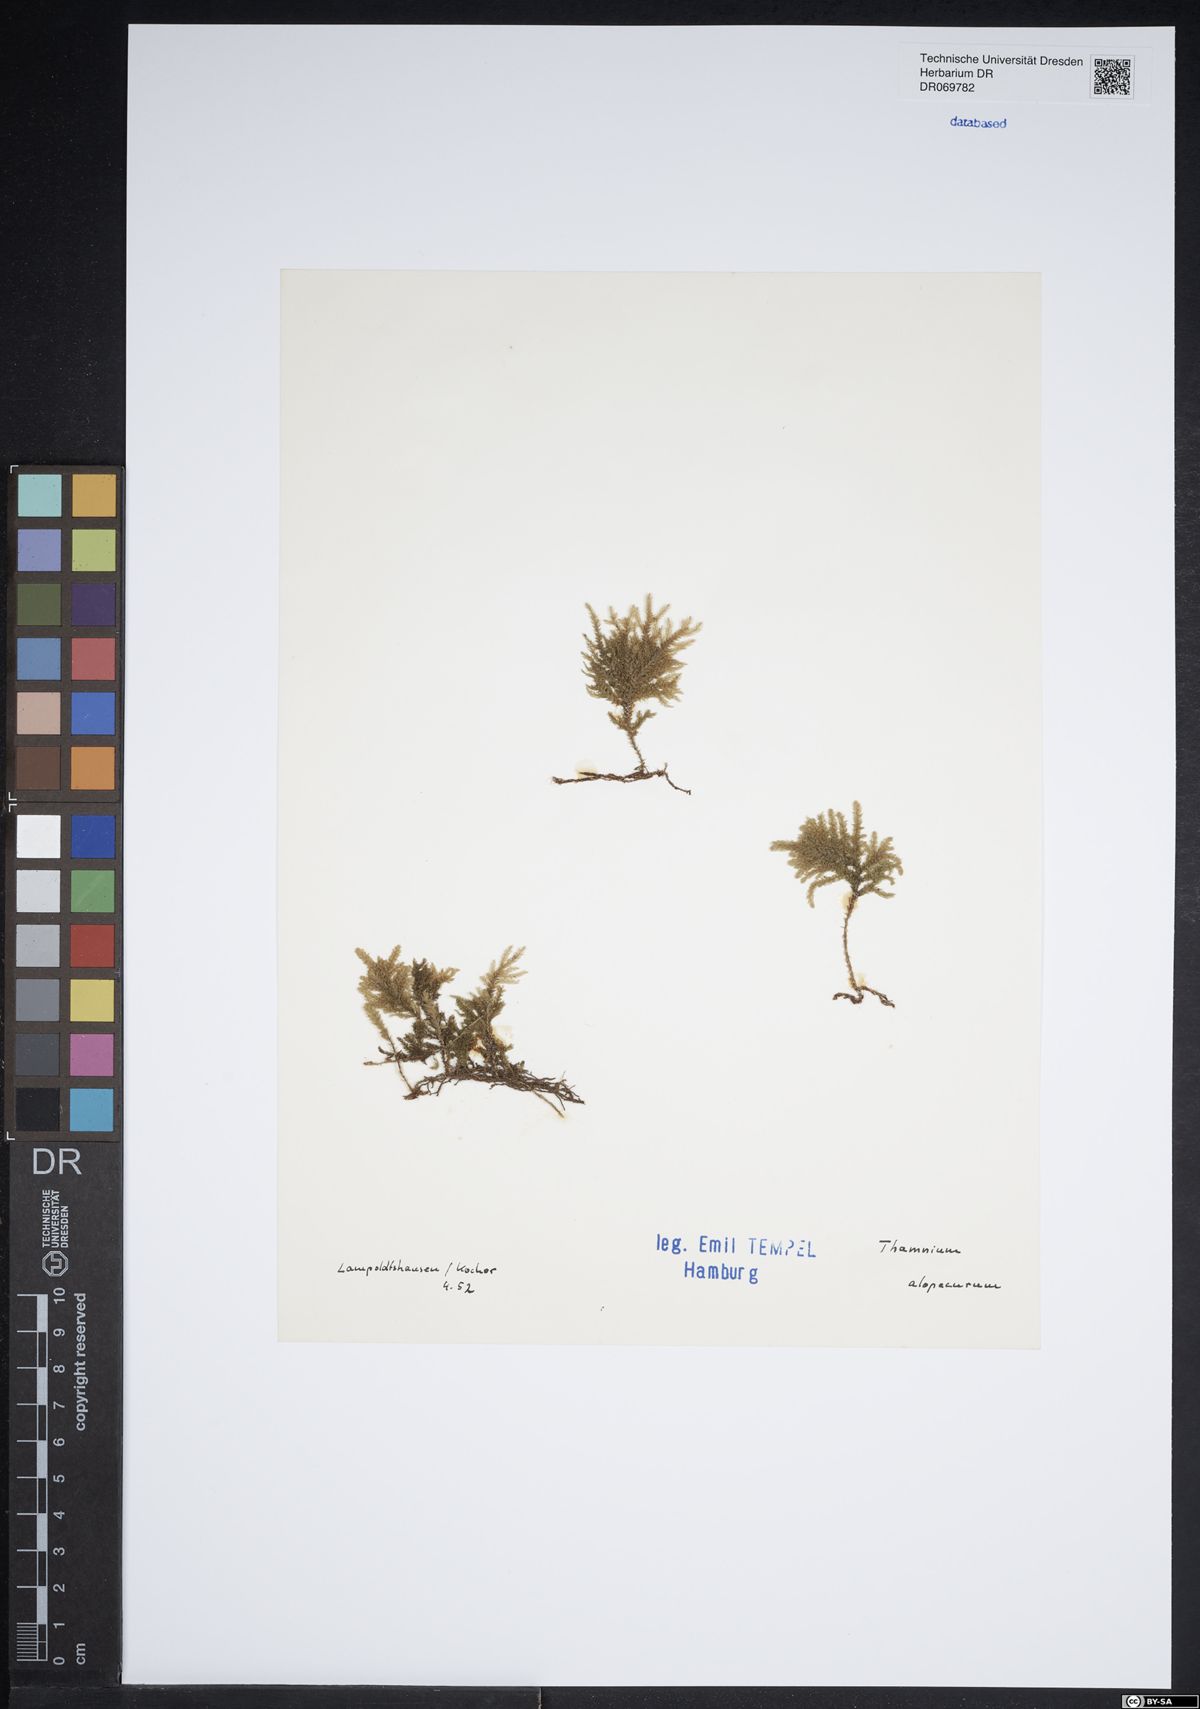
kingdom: Plantae
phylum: Bryophyta
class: Bryopsida
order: Hypnales
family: Neckeraceae
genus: Thamnobryum
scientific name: Thamnobryum alopecurum
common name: Fox-tail feather-moss
